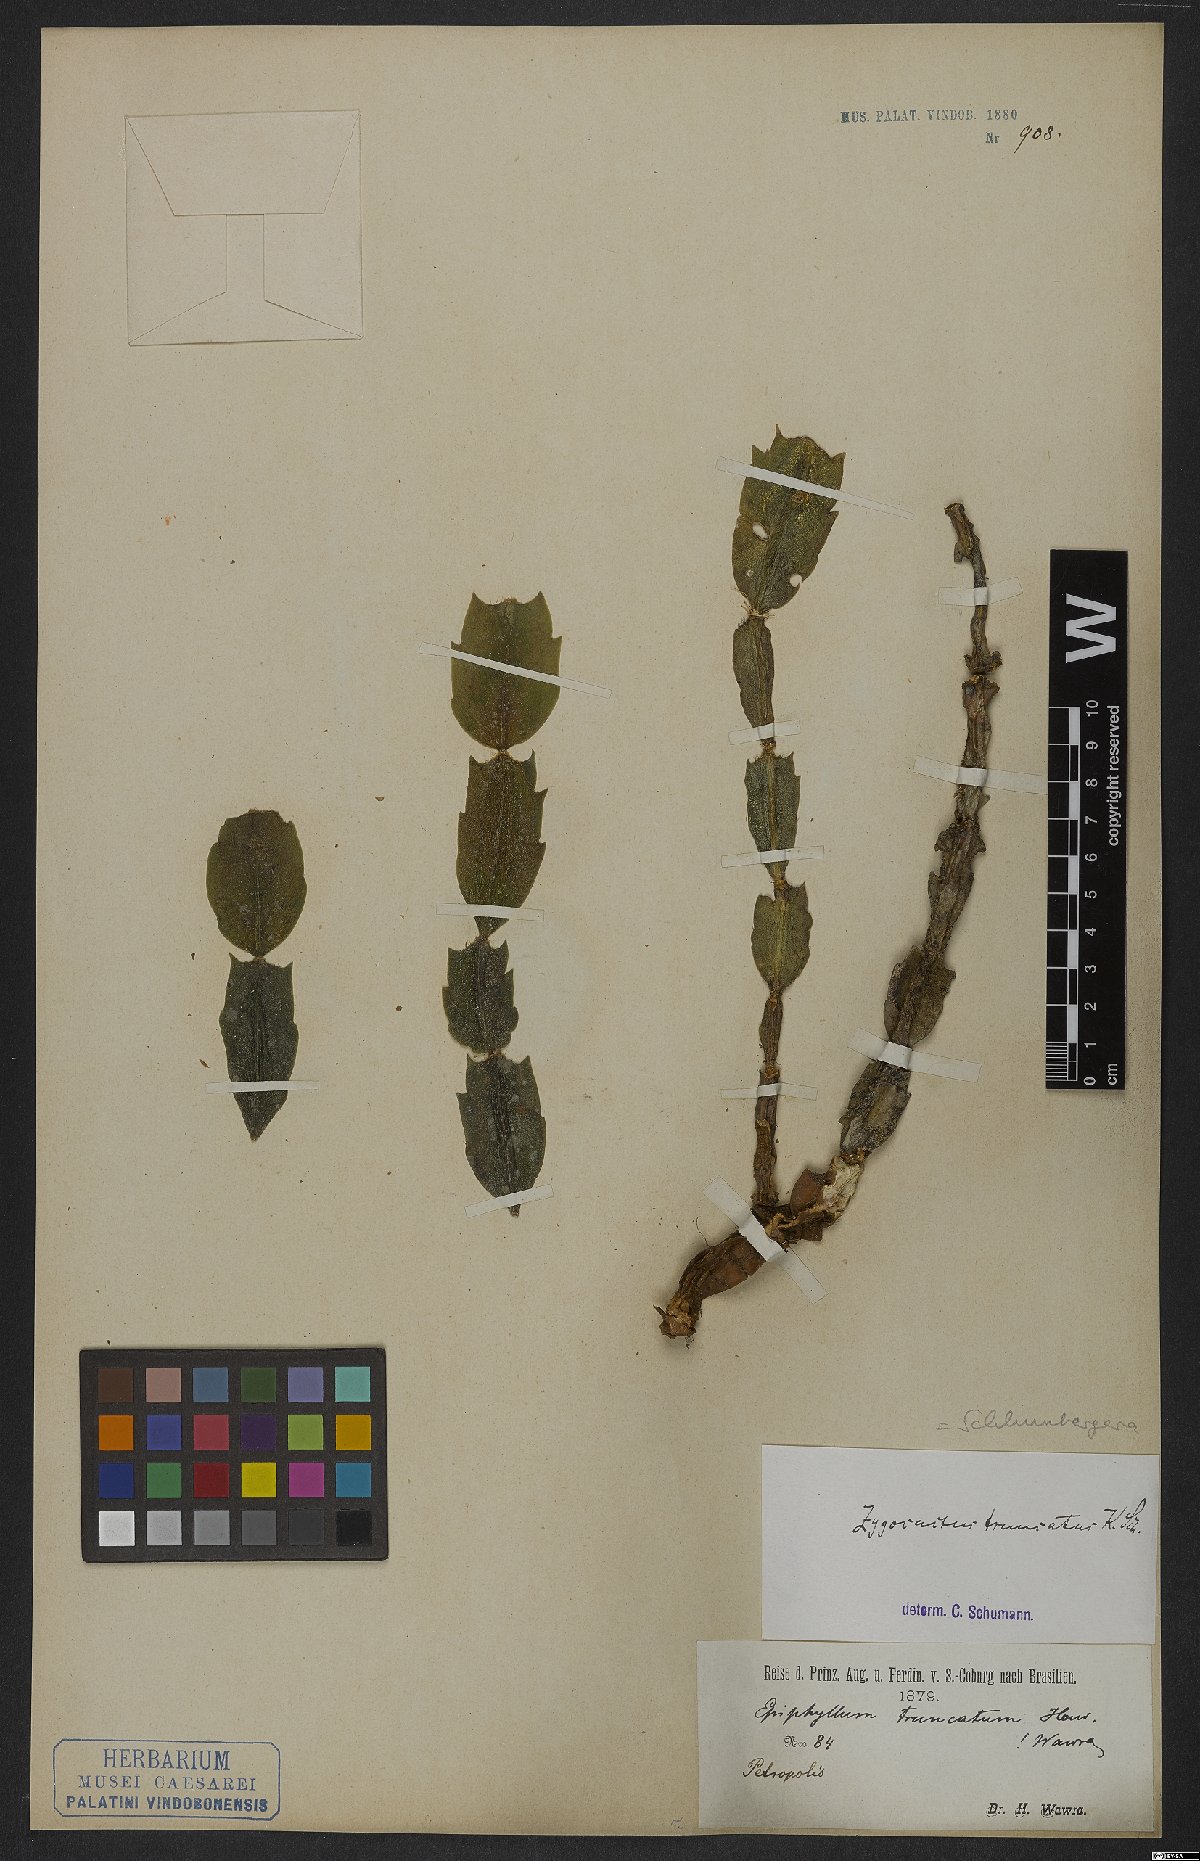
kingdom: Plantae
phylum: Tracheophyta
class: Magnoliopsida
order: Caryophyllales
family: Cactaceae
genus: Schlumbergera
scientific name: Schlumbergera truncata
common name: Thanksgiving cactus
